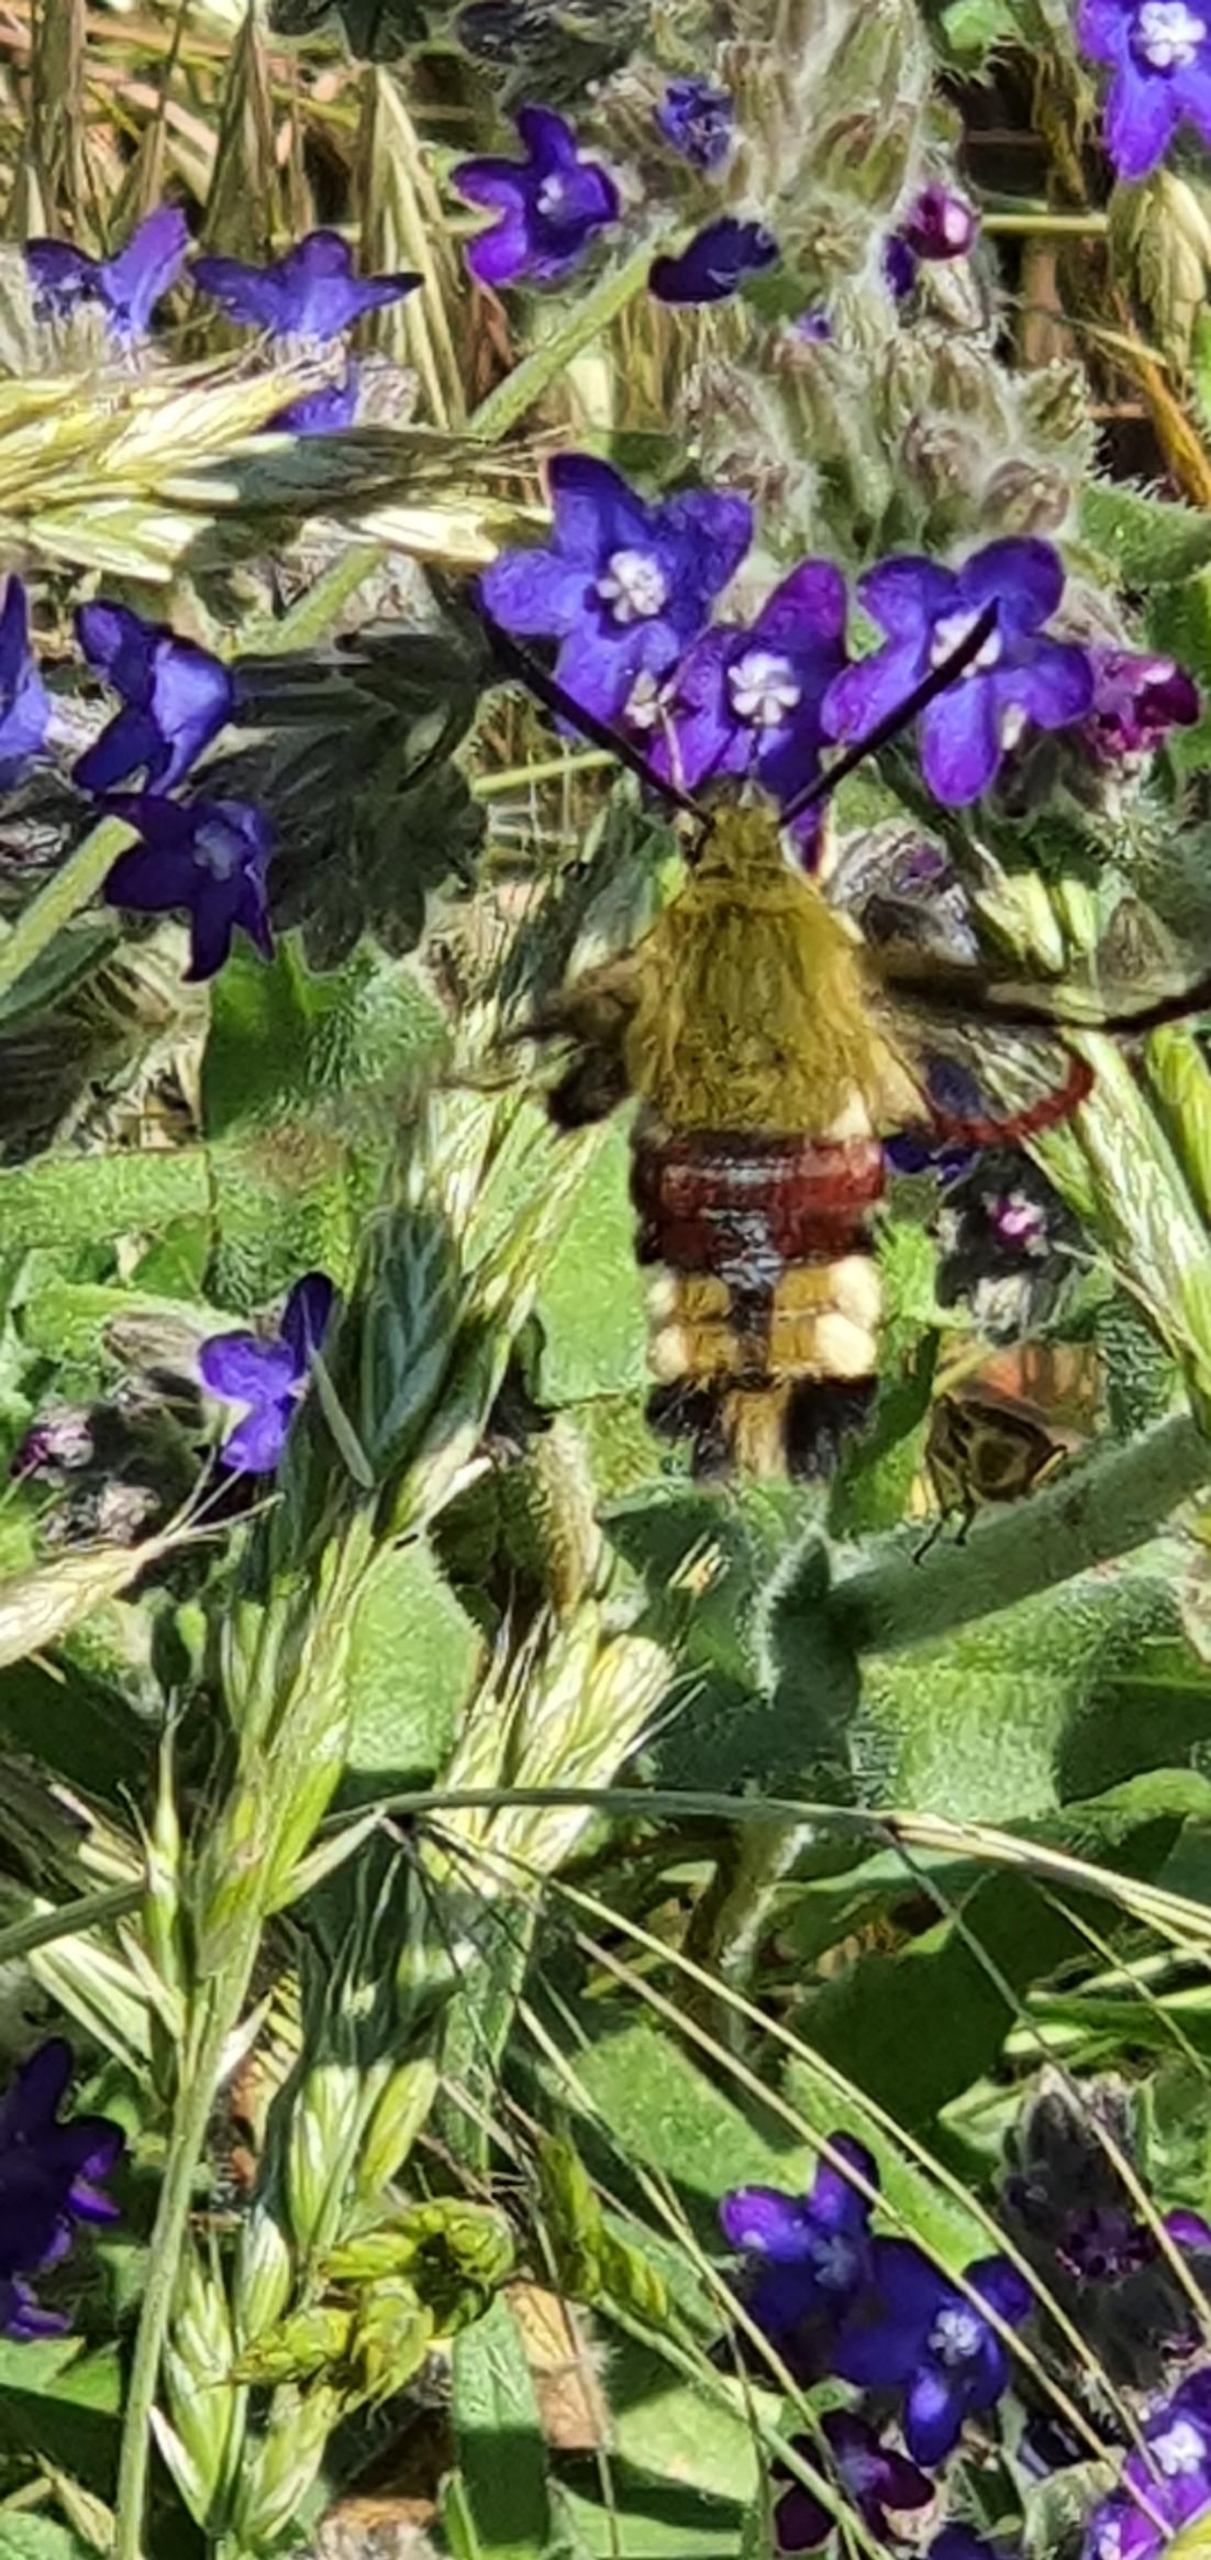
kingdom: Animalia
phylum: Arthropoda
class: Insecta
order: Lepidoptera
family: Sphingidae
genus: Hemaris
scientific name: Hemaris fuciformis
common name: Bredrandet humlebisværmer
